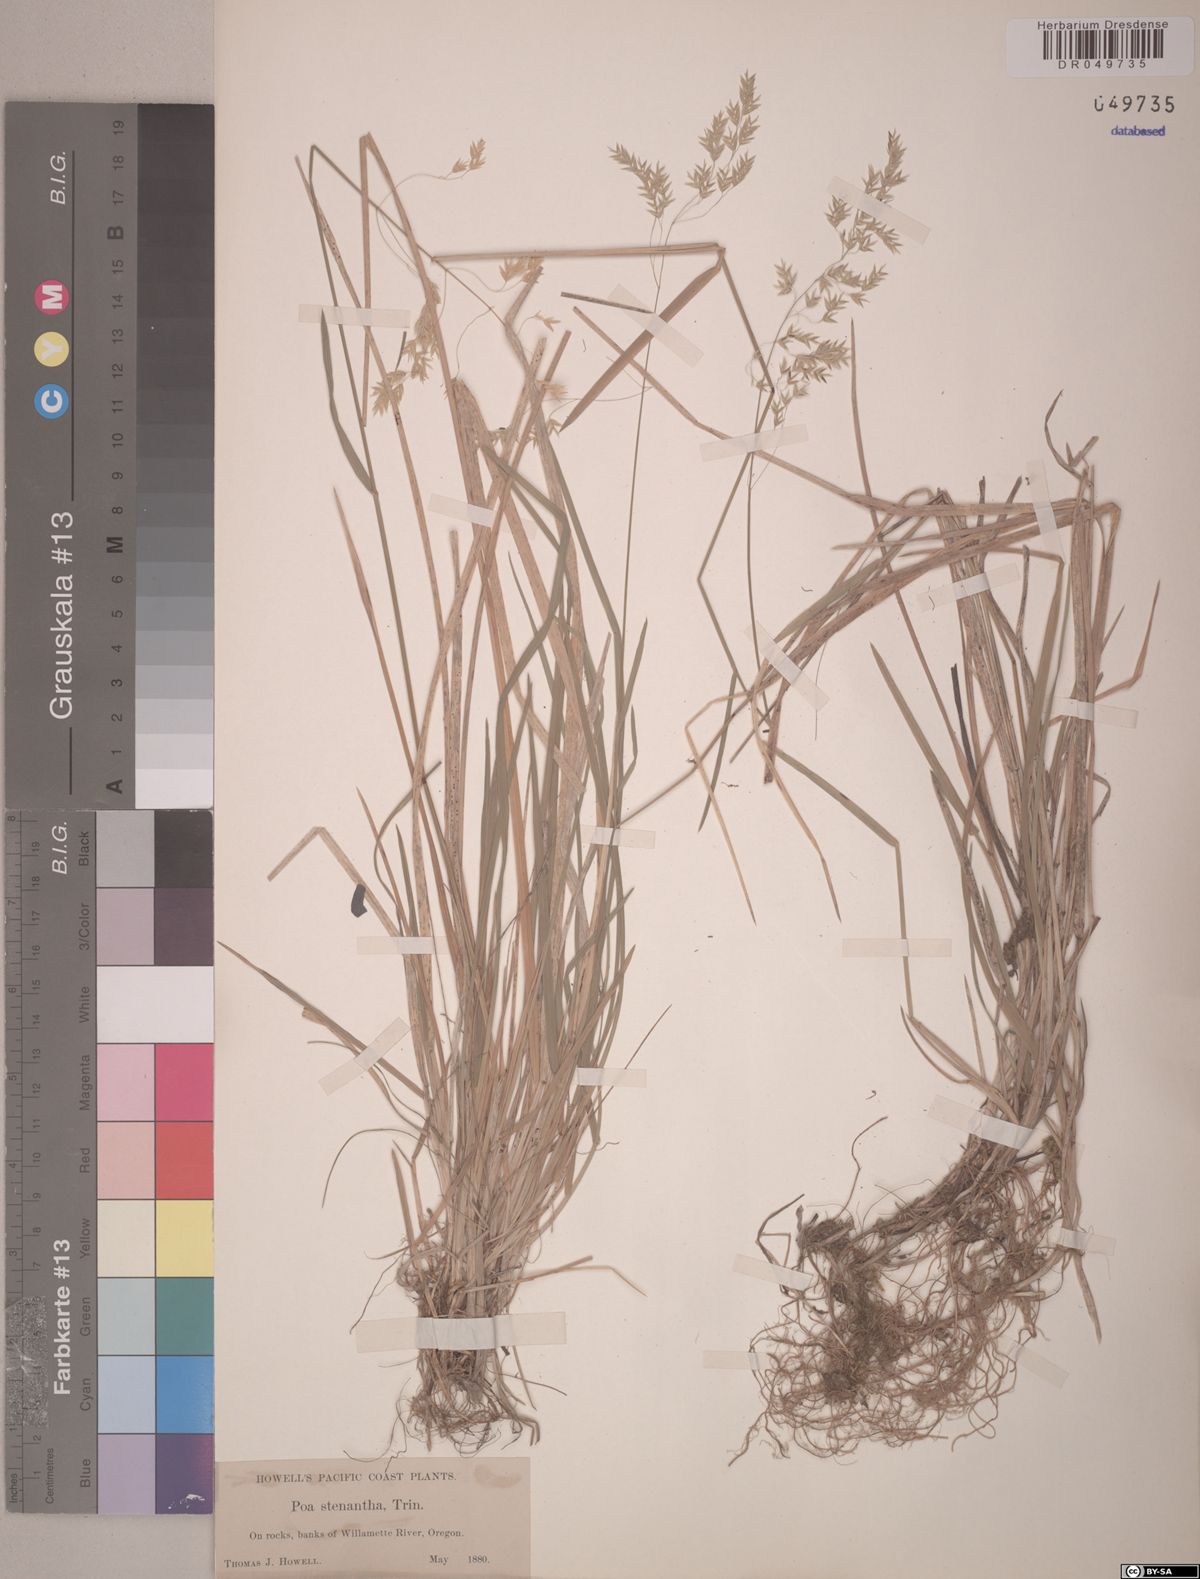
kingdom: Plantae
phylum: Tracheophyta
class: Liliopsida
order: Poales
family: Poaceae
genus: Poa
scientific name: Poa stenantha
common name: Narrow-flowered bluegrass
